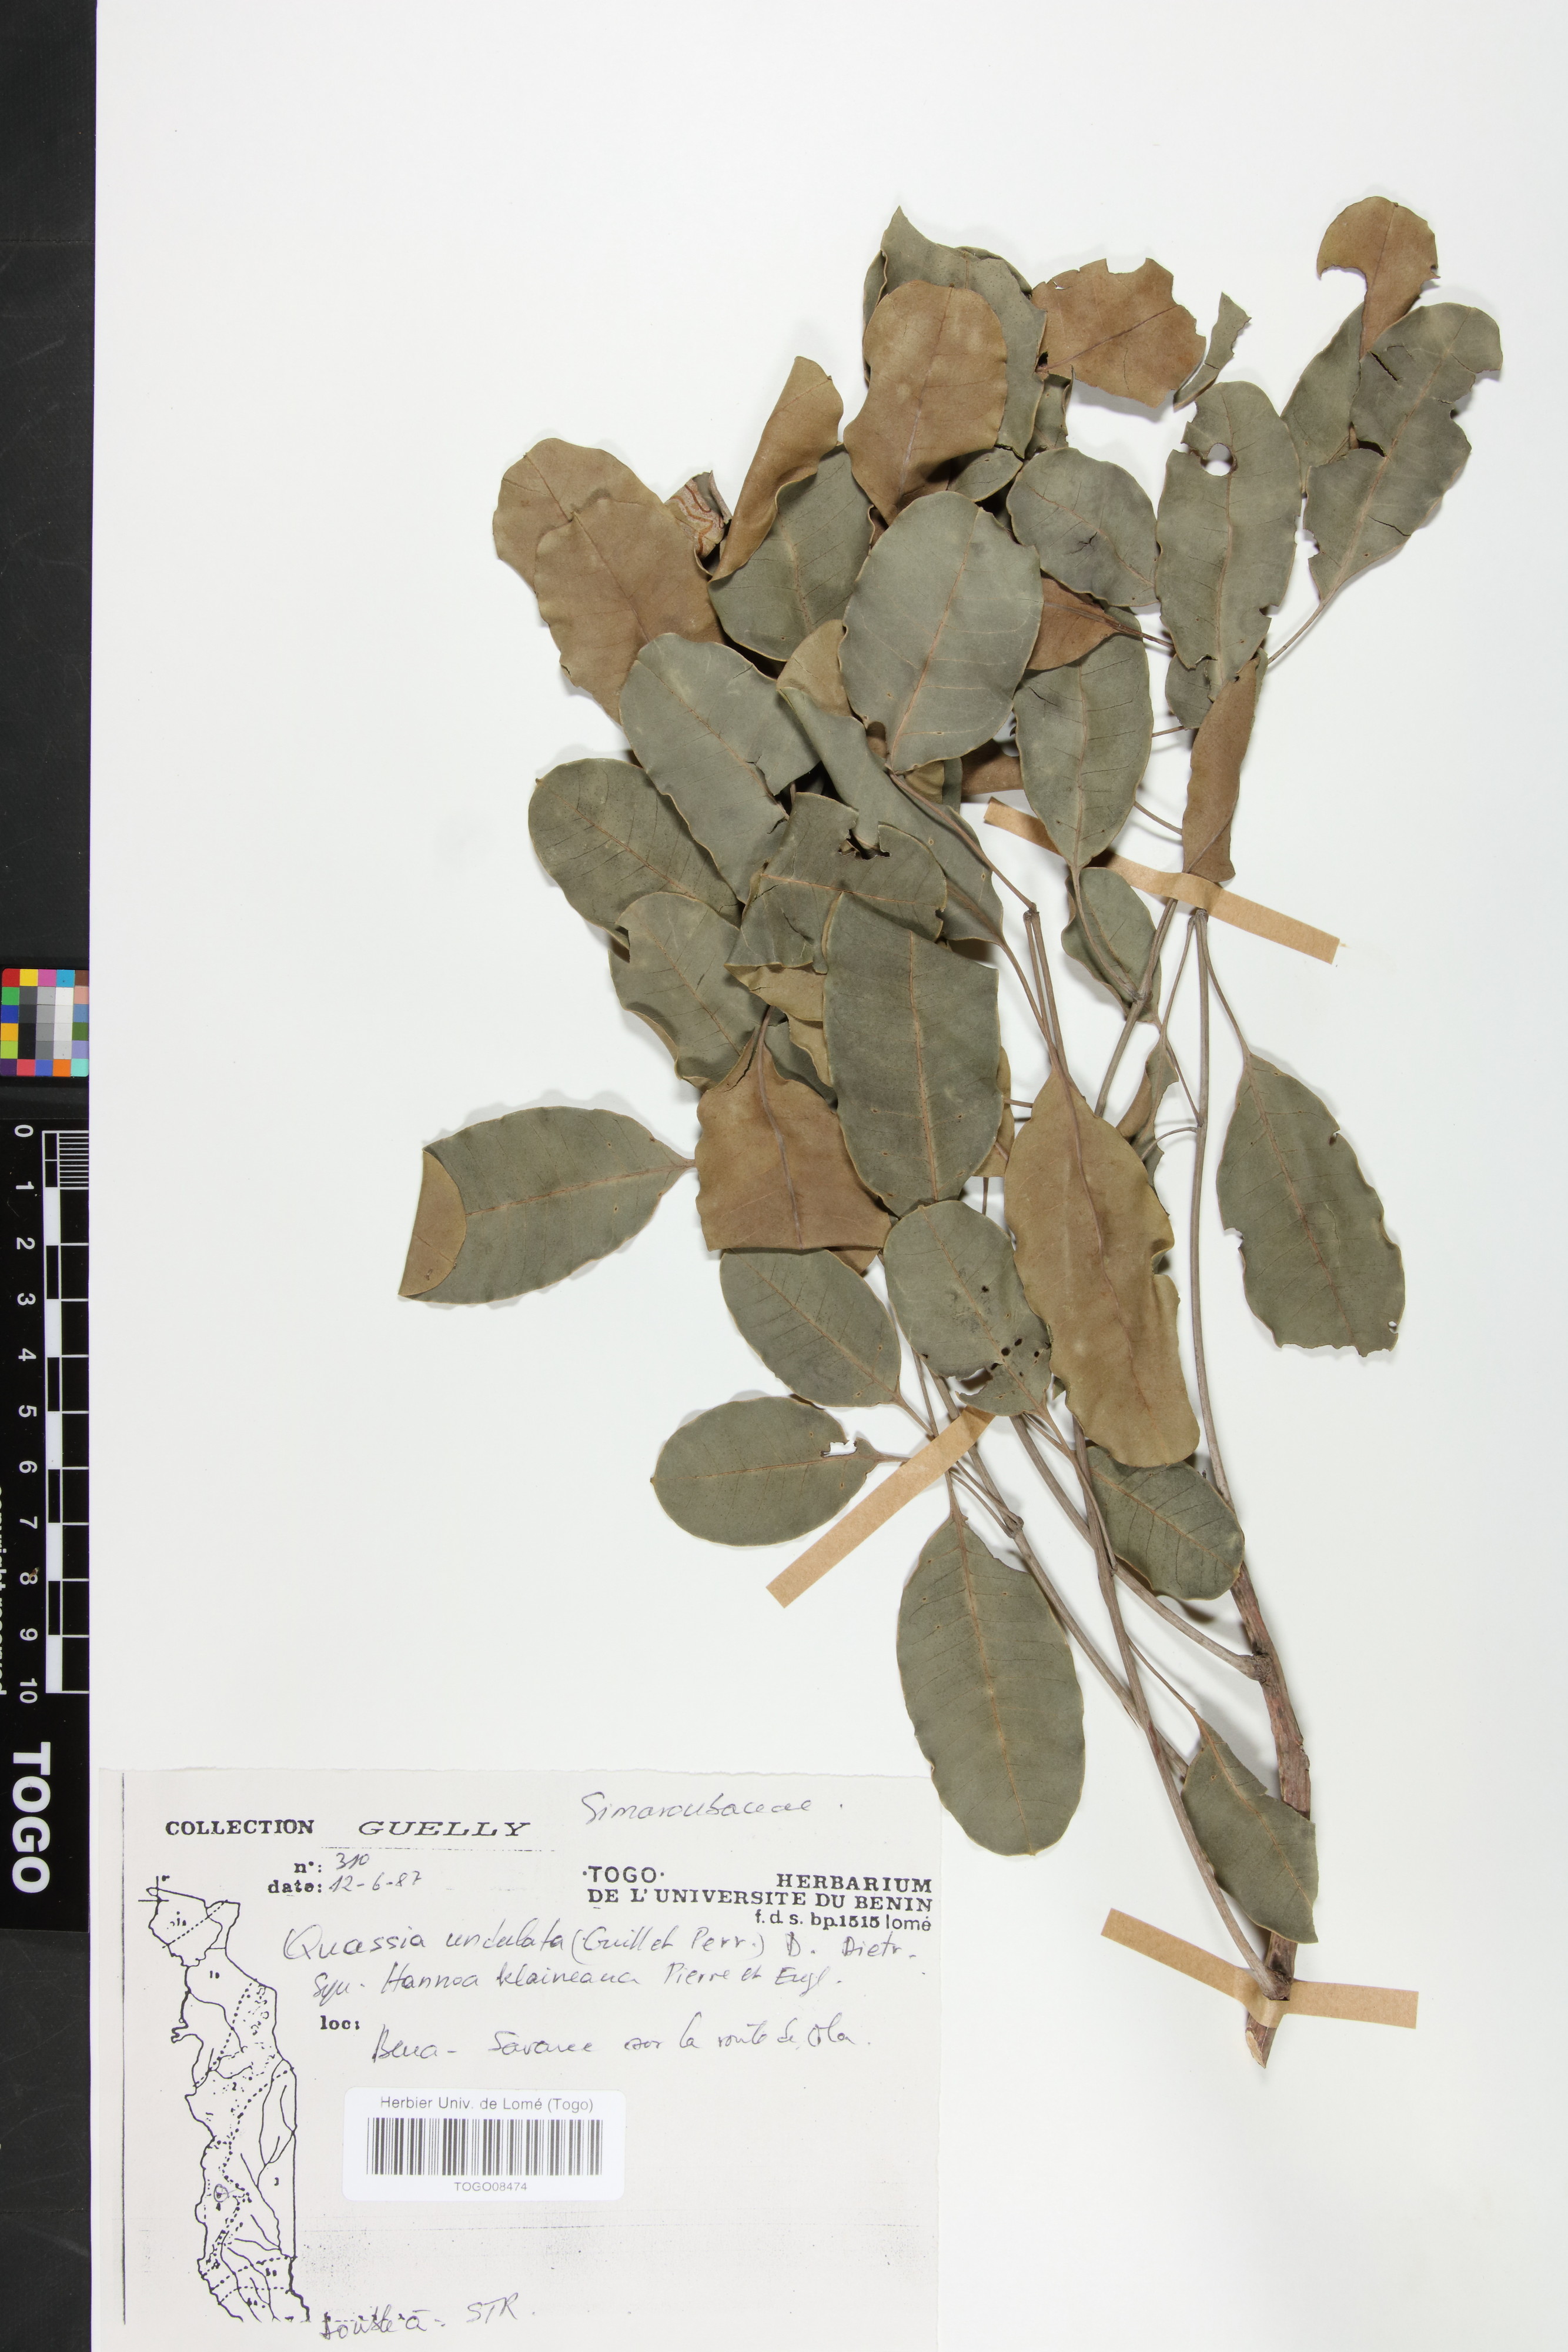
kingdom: Plantae
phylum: Tracheophyta
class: Magnoliopsida
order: Sapindales
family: Simaroubaceae
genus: Odyendyea
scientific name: Odyendyea klaineana
